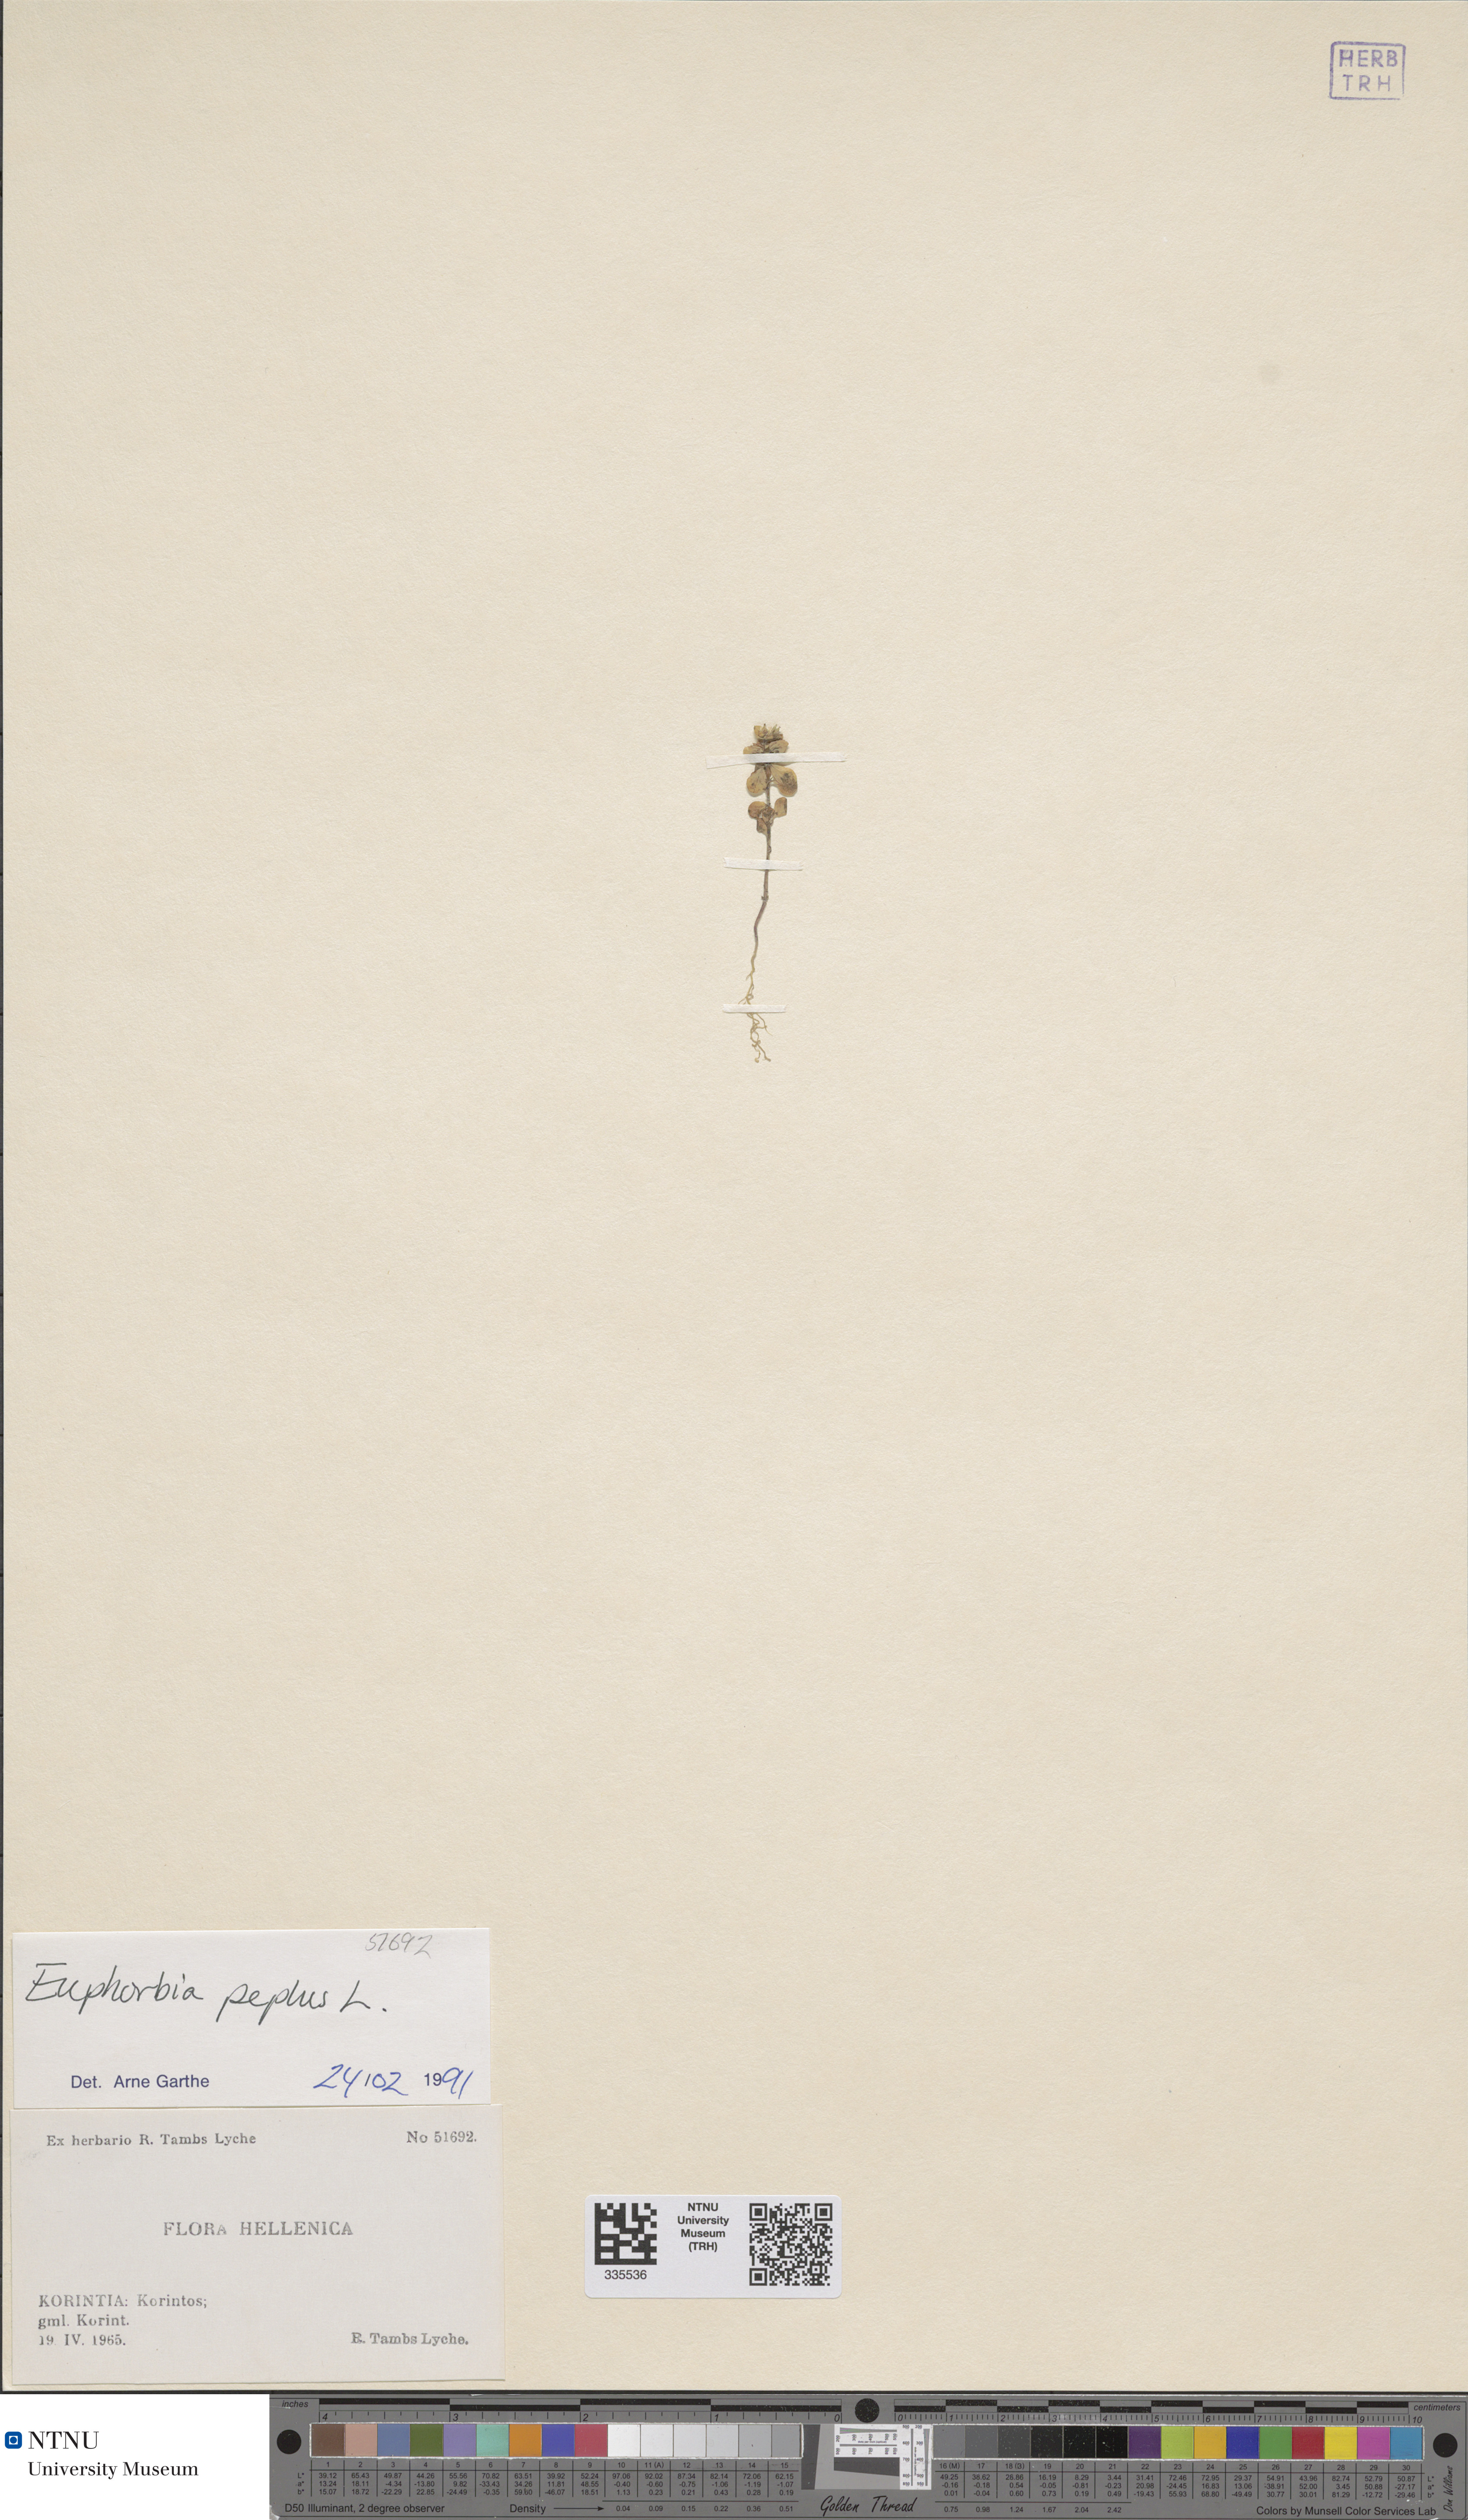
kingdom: Plantae
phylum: Tracheophyta
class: Magnoliopsida
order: Malpighiales
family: Euphorbiaceae
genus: Euphorbia
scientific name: Euphorbia peplus
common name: Petty spurge
